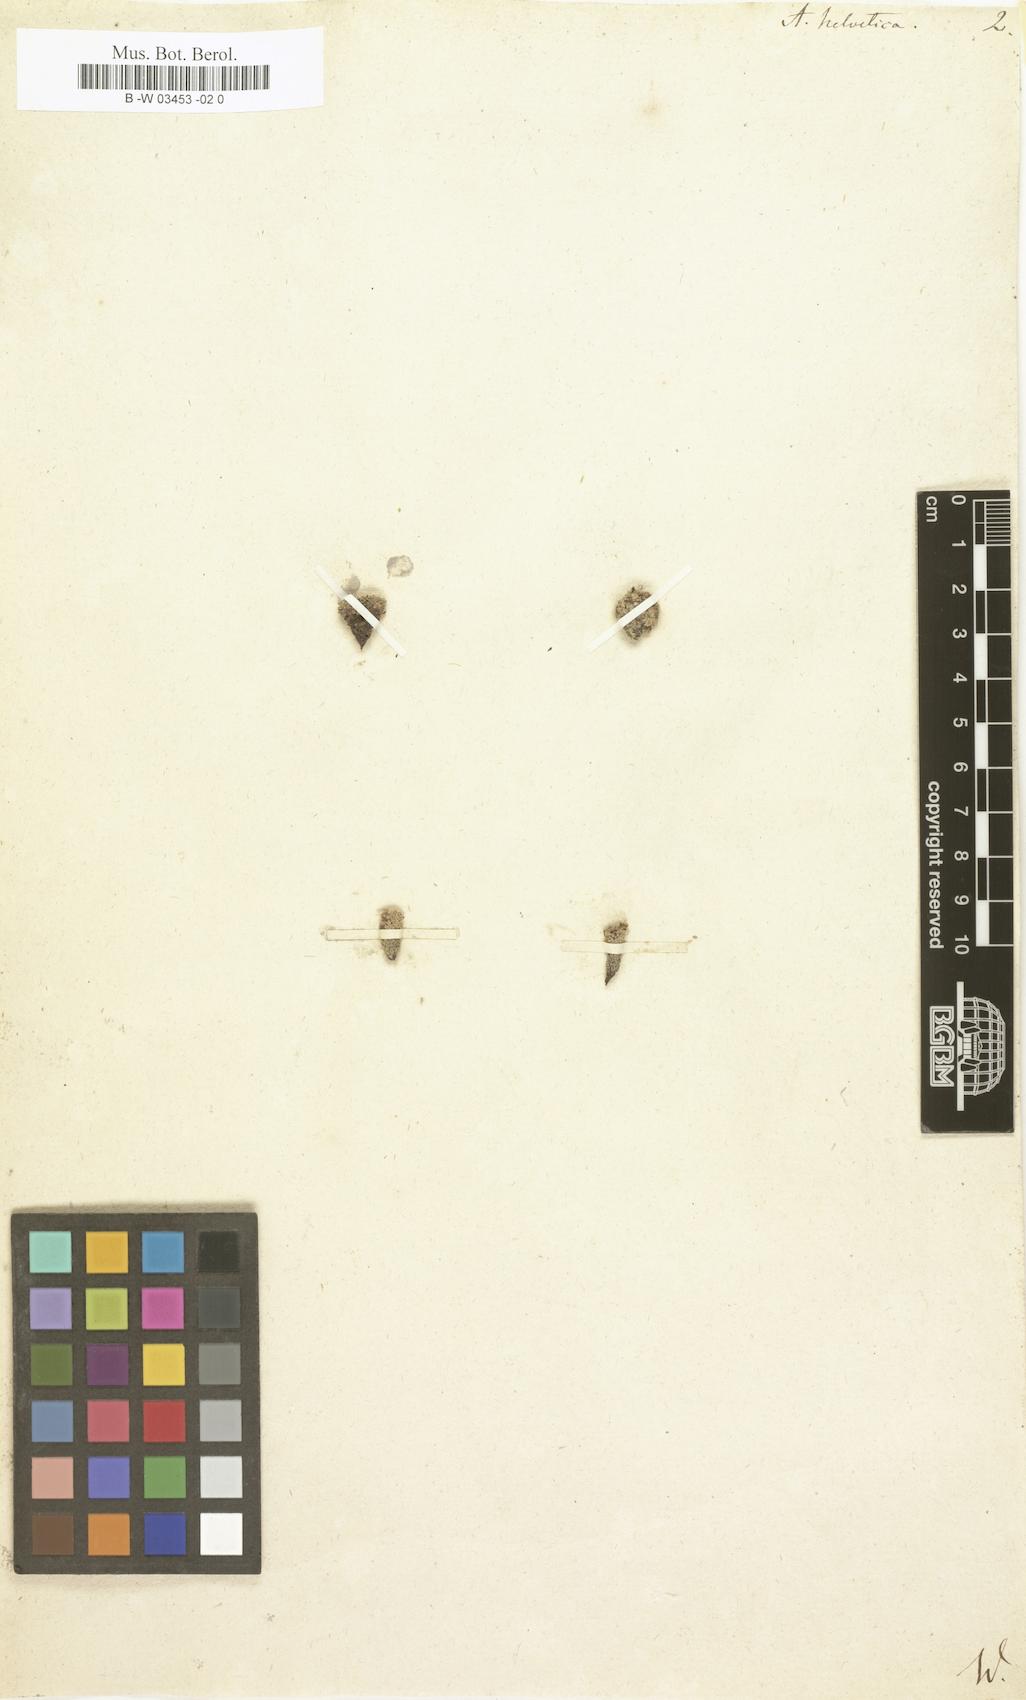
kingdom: Plantae
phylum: Tracheophyta
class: Magnoliopsida
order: Ericales
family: Primulaceae
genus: Androsace
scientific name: Androsace helvetica
